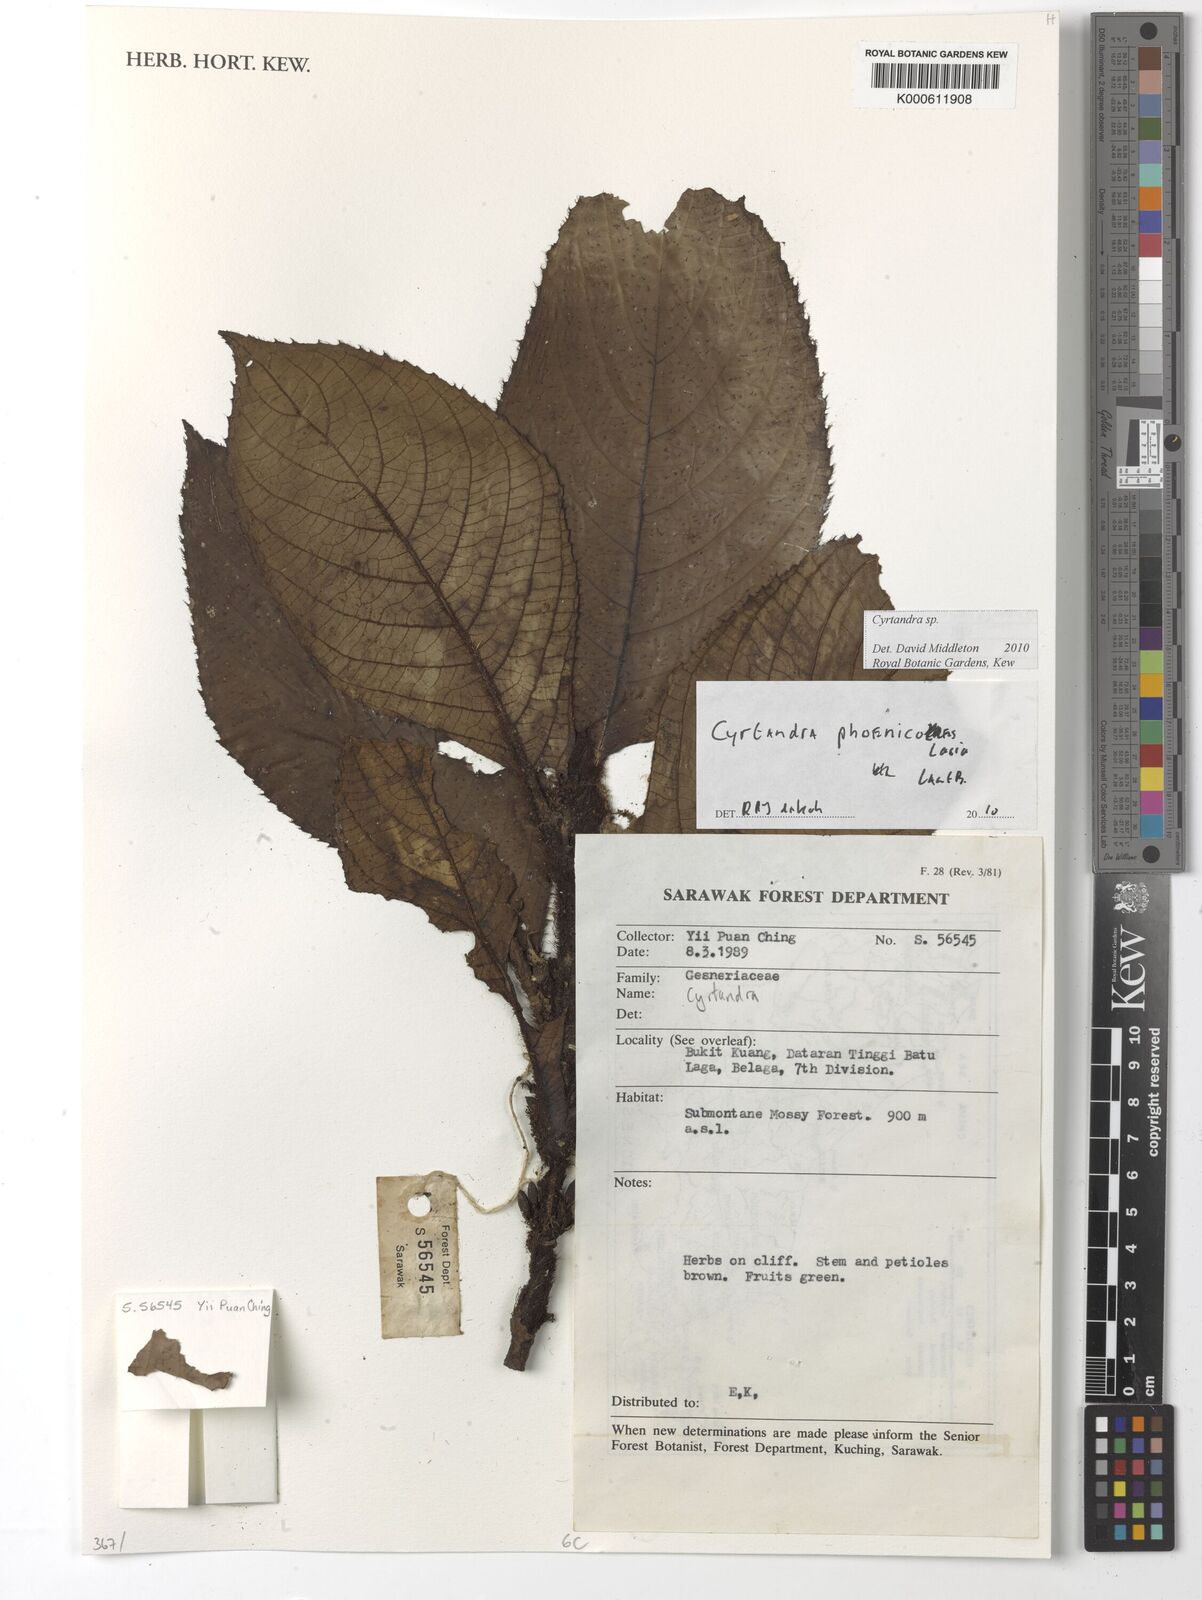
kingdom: Plantae
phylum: Tracheophyta
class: Magnoliopsida
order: Lamiales
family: Gesneriaceae
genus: Cyrtandra
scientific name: Cyrtandra phoenicolasia
